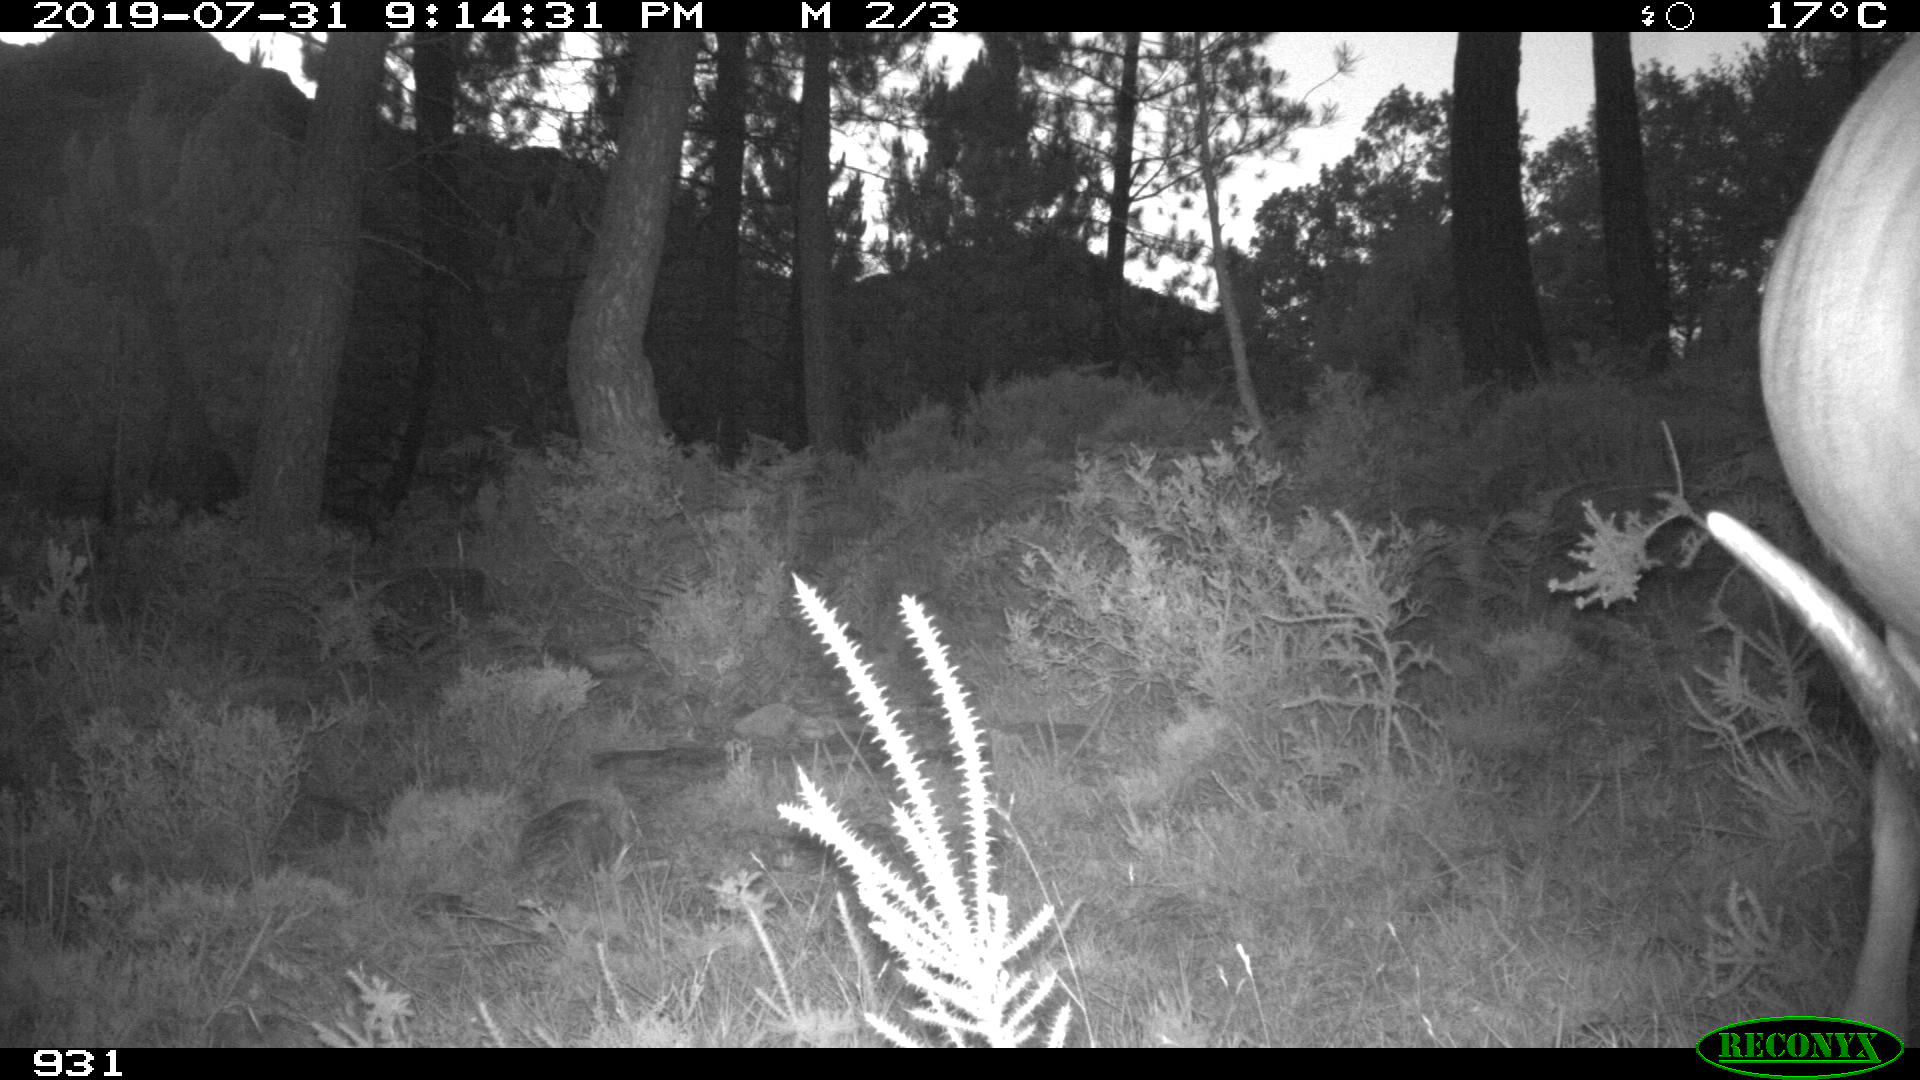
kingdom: Animalia
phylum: Chordata
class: Mammalia
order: Artiodactyla
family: Bovidae
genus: Bos
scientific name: Bos taurus
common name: Domesticated cattle
